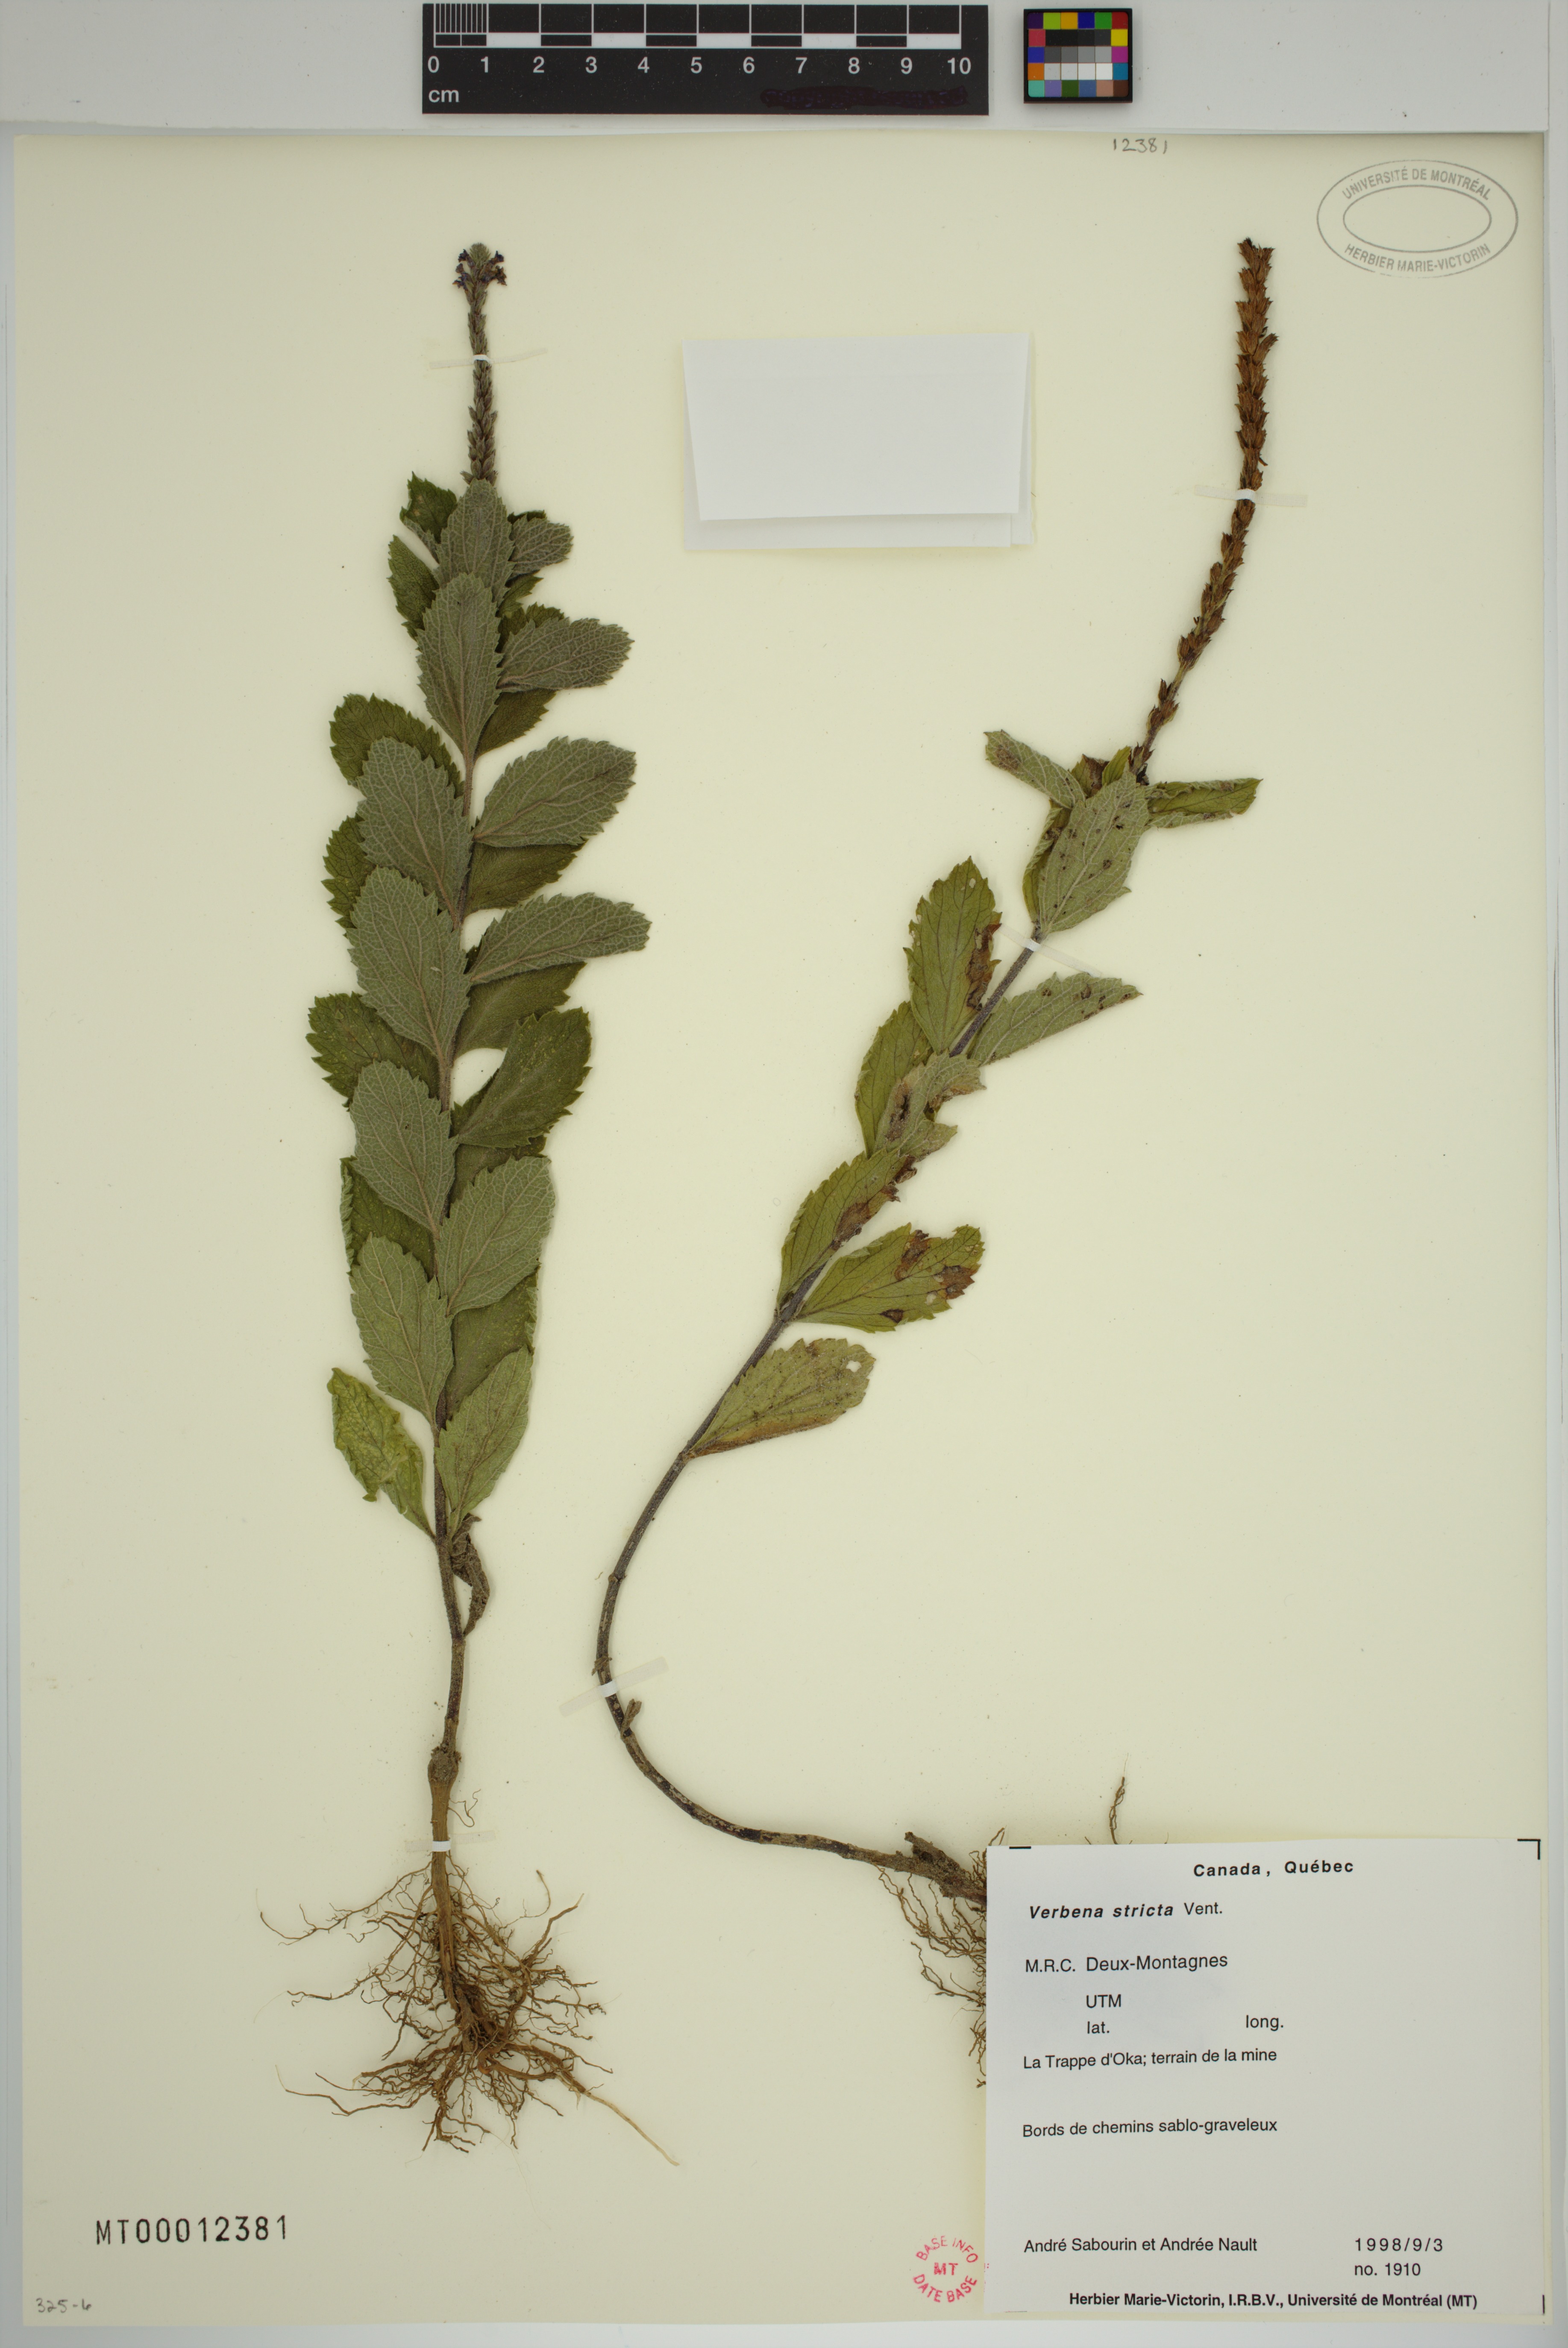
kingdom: Plantae
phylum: Tracheophyta
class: Magnoliopsida
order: Lamiales
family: Verbenaceae
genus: Verbena
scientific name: Verbena stricta
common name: Hoary vervain
